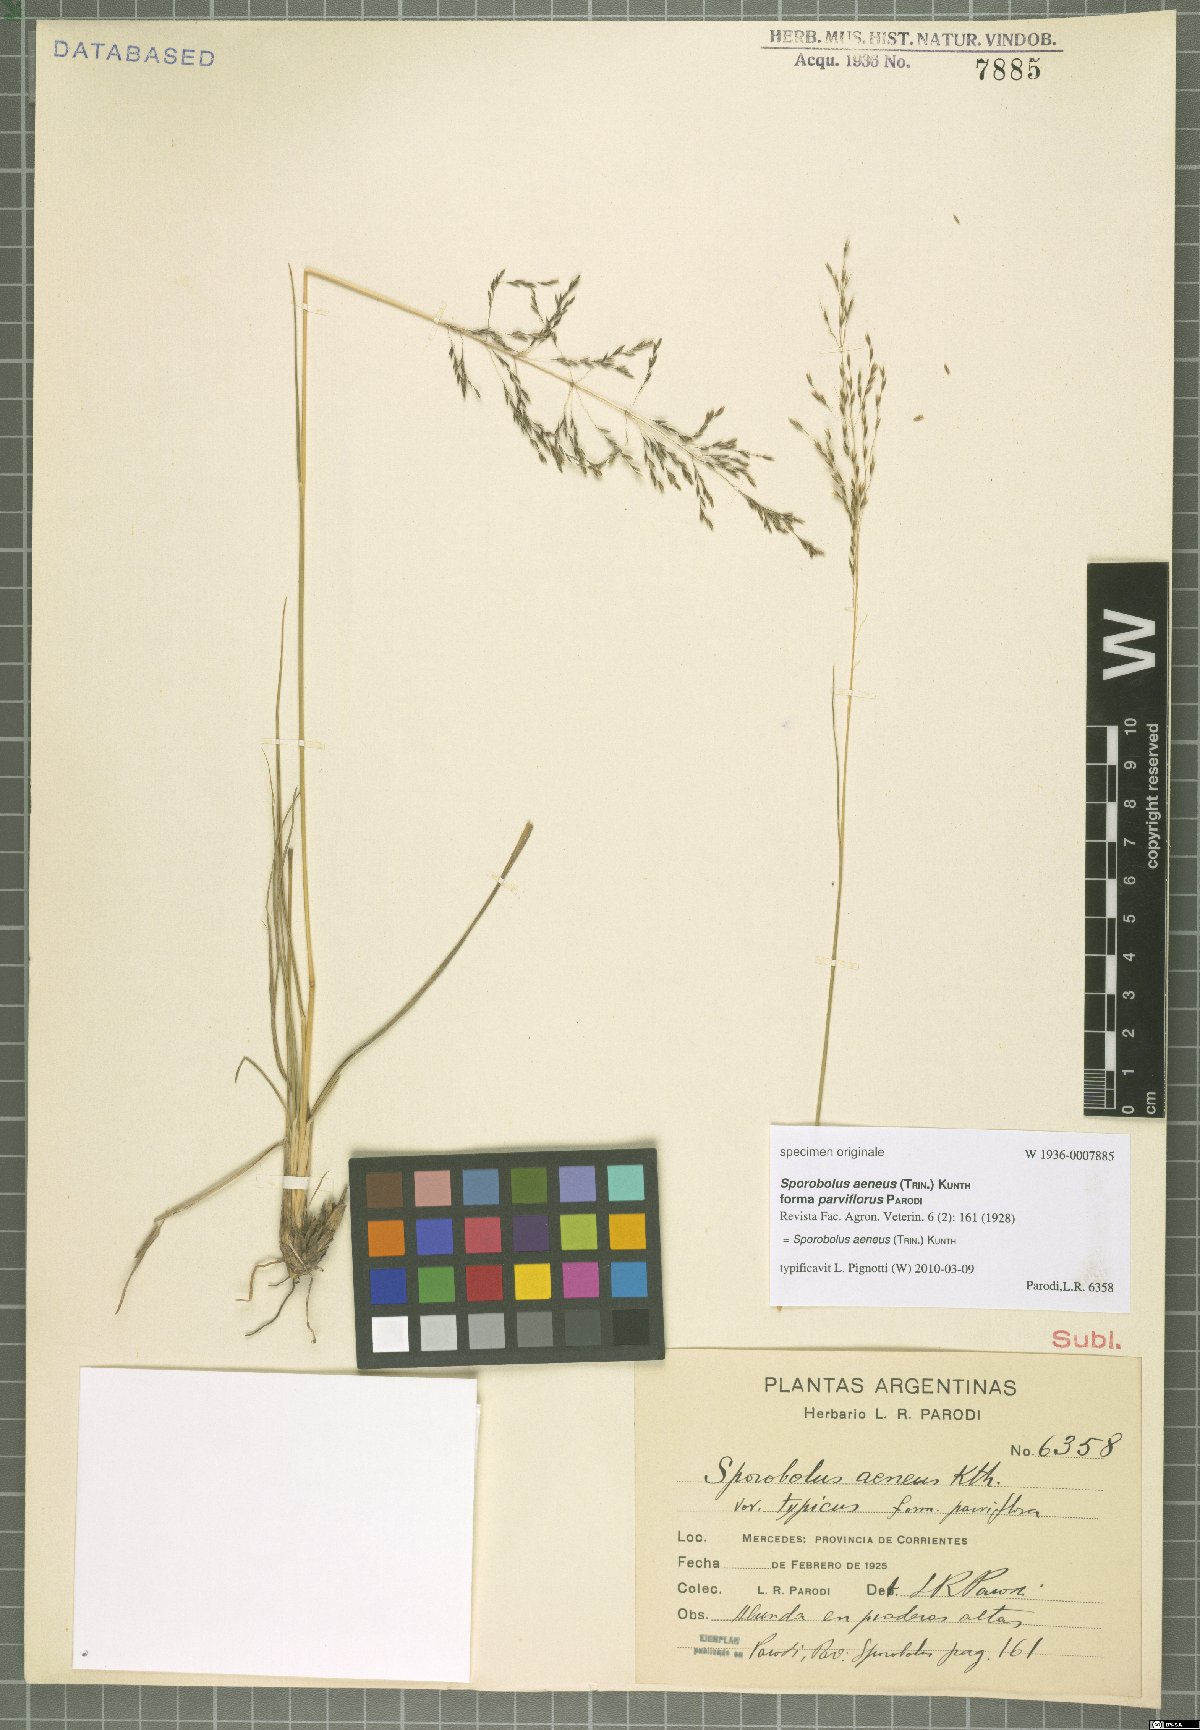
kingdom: Plantae
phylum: Tracheophyta
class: Liliopsida
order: Poales
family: Poaceae
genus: Sporobolus
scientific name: Sporobolus aeneus
